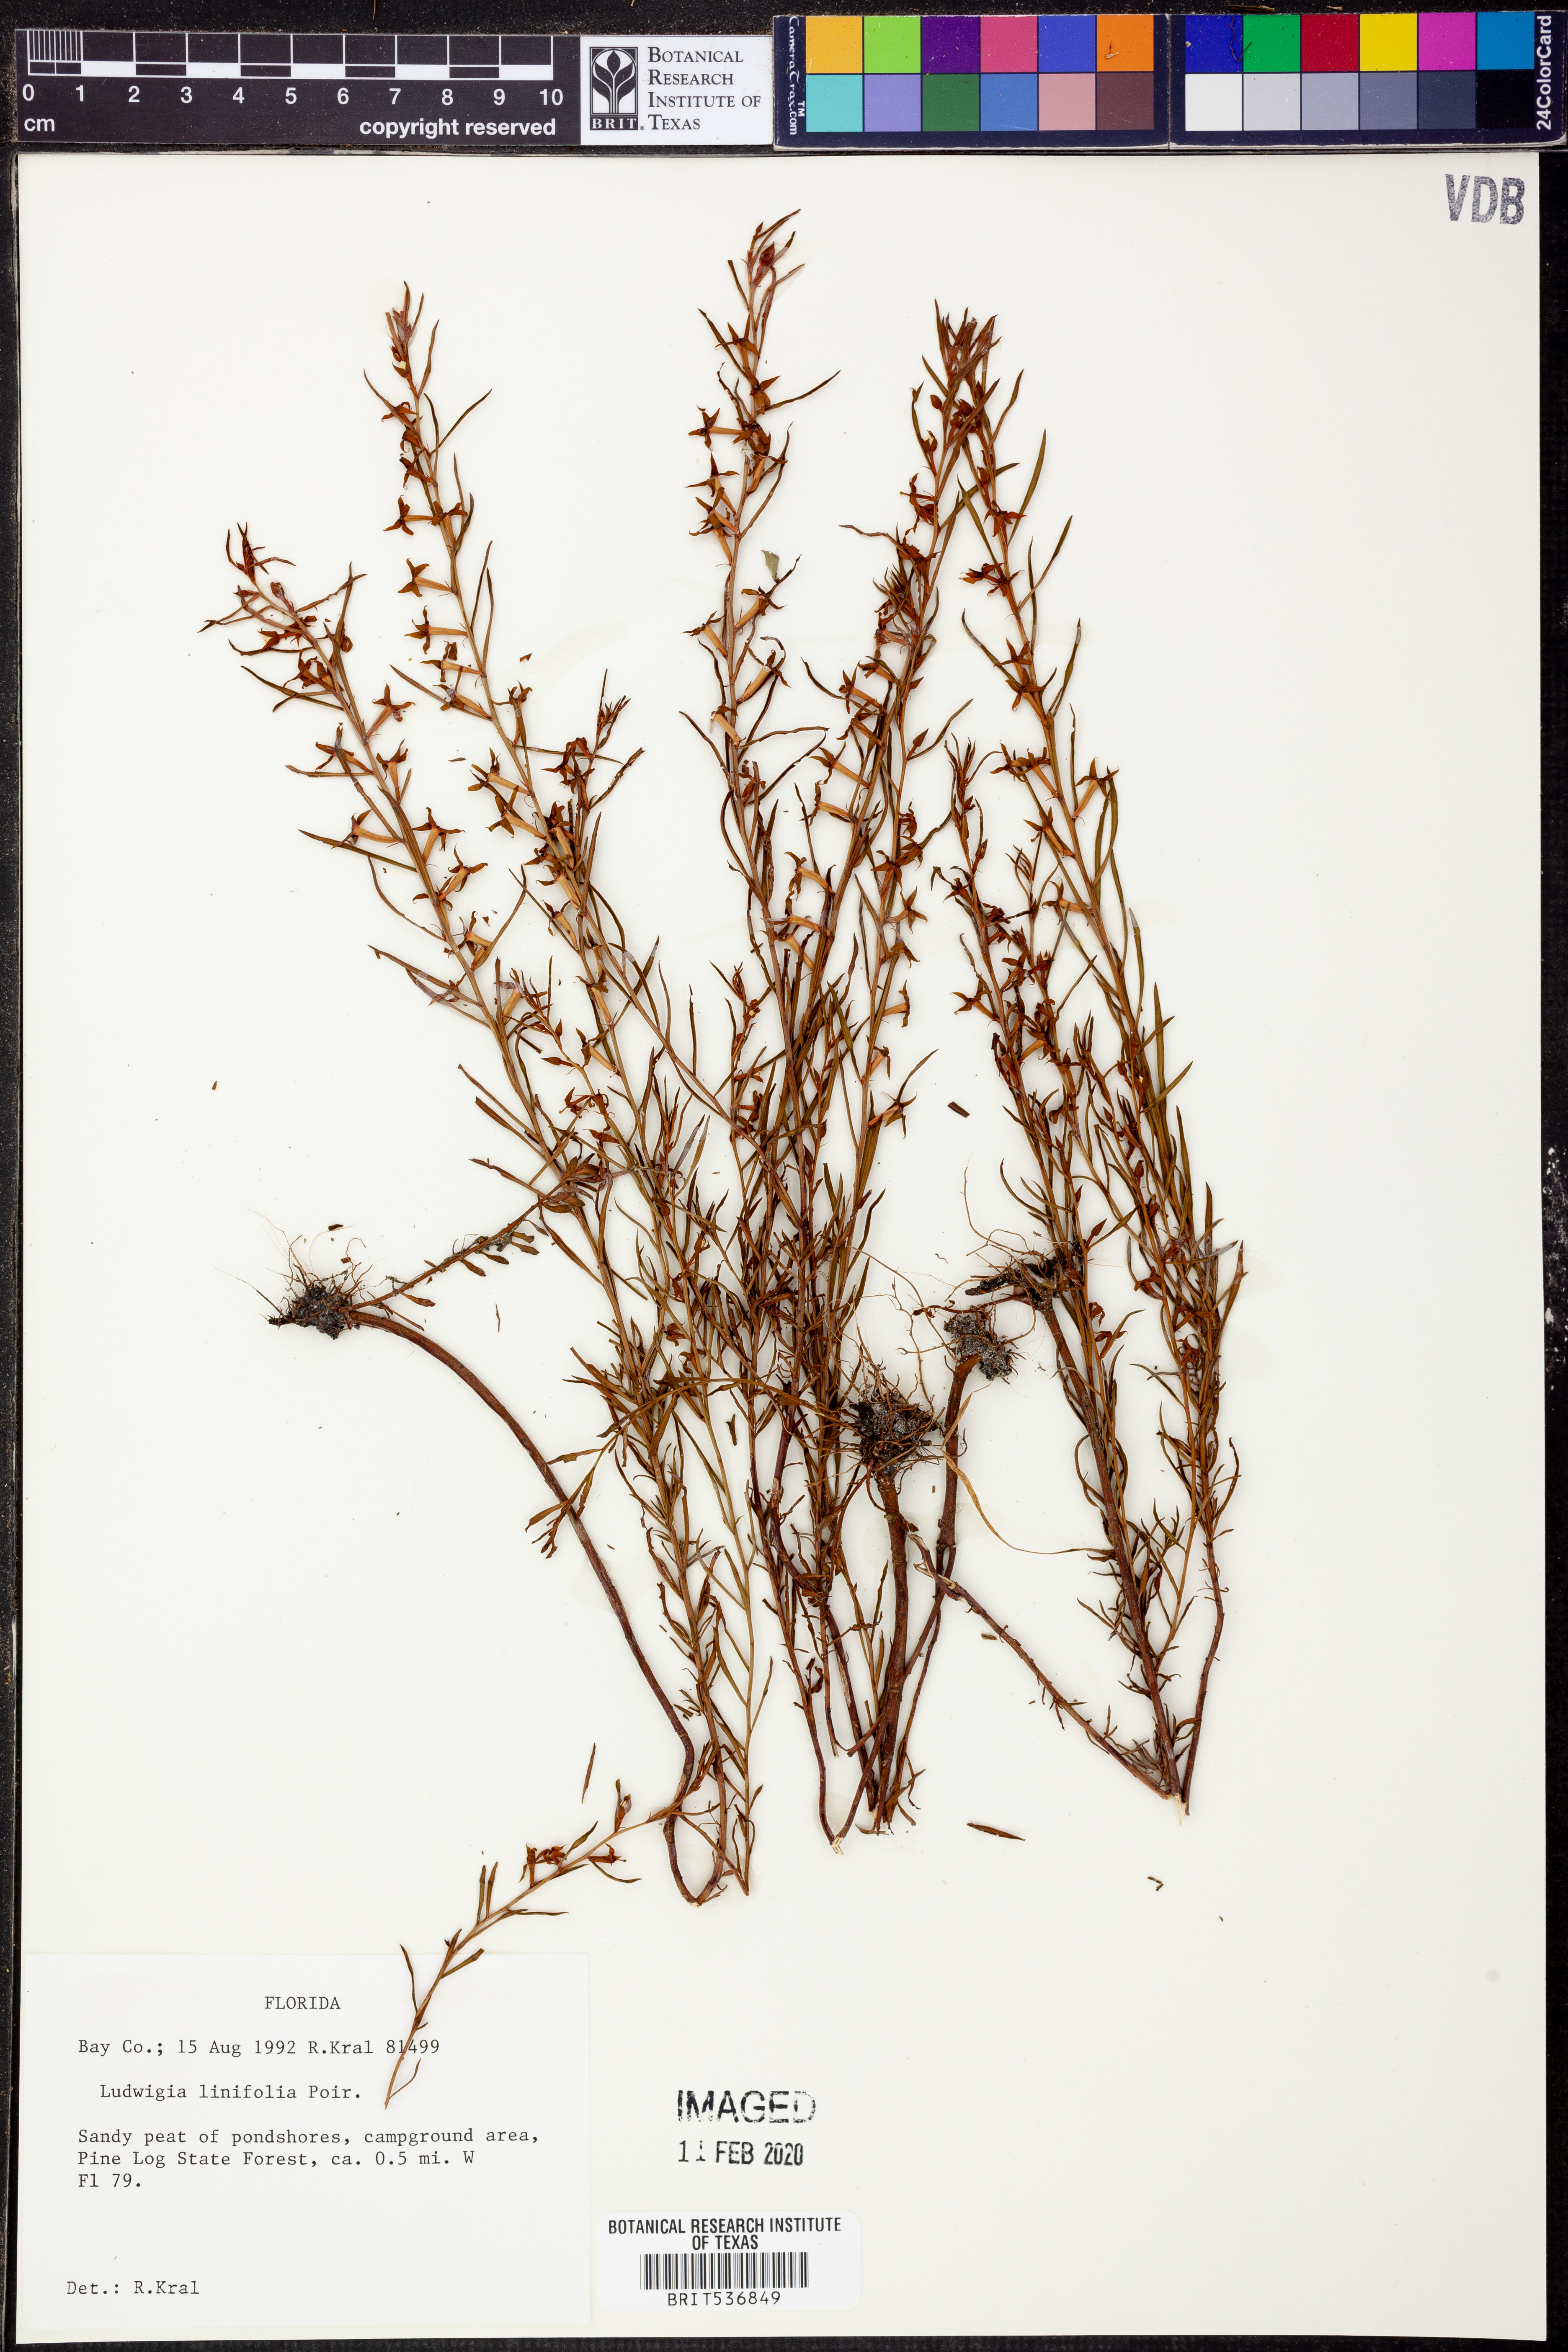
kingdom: Plantae
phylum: Tracheophyta
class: Magnoliopsida
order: Myrtales
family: Onagraceae
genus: Ludwigia
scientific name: Ludwigia linifolia
